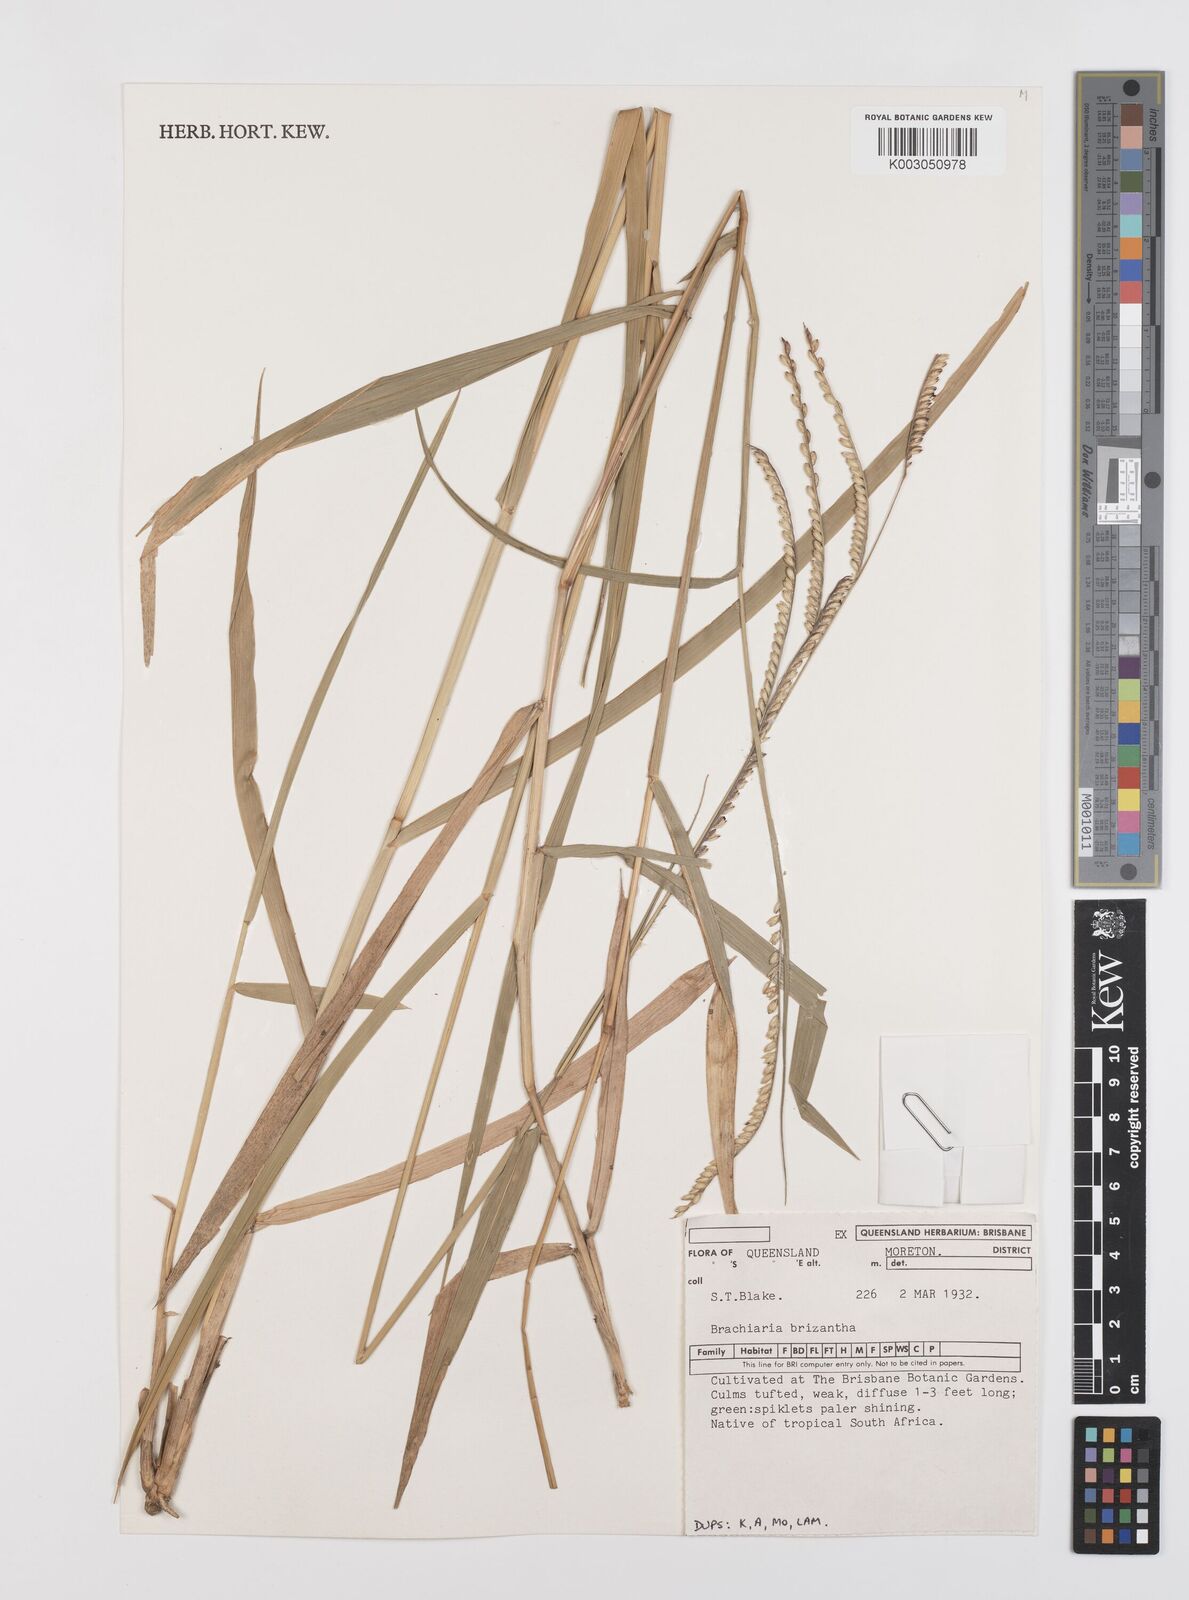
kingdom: Plantae
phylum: Tracheophyta
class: Liliopsida
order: Poales
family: Poaceae
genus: Urochloa
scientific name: Urochloa brizantha
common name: Palisade signalgrass
